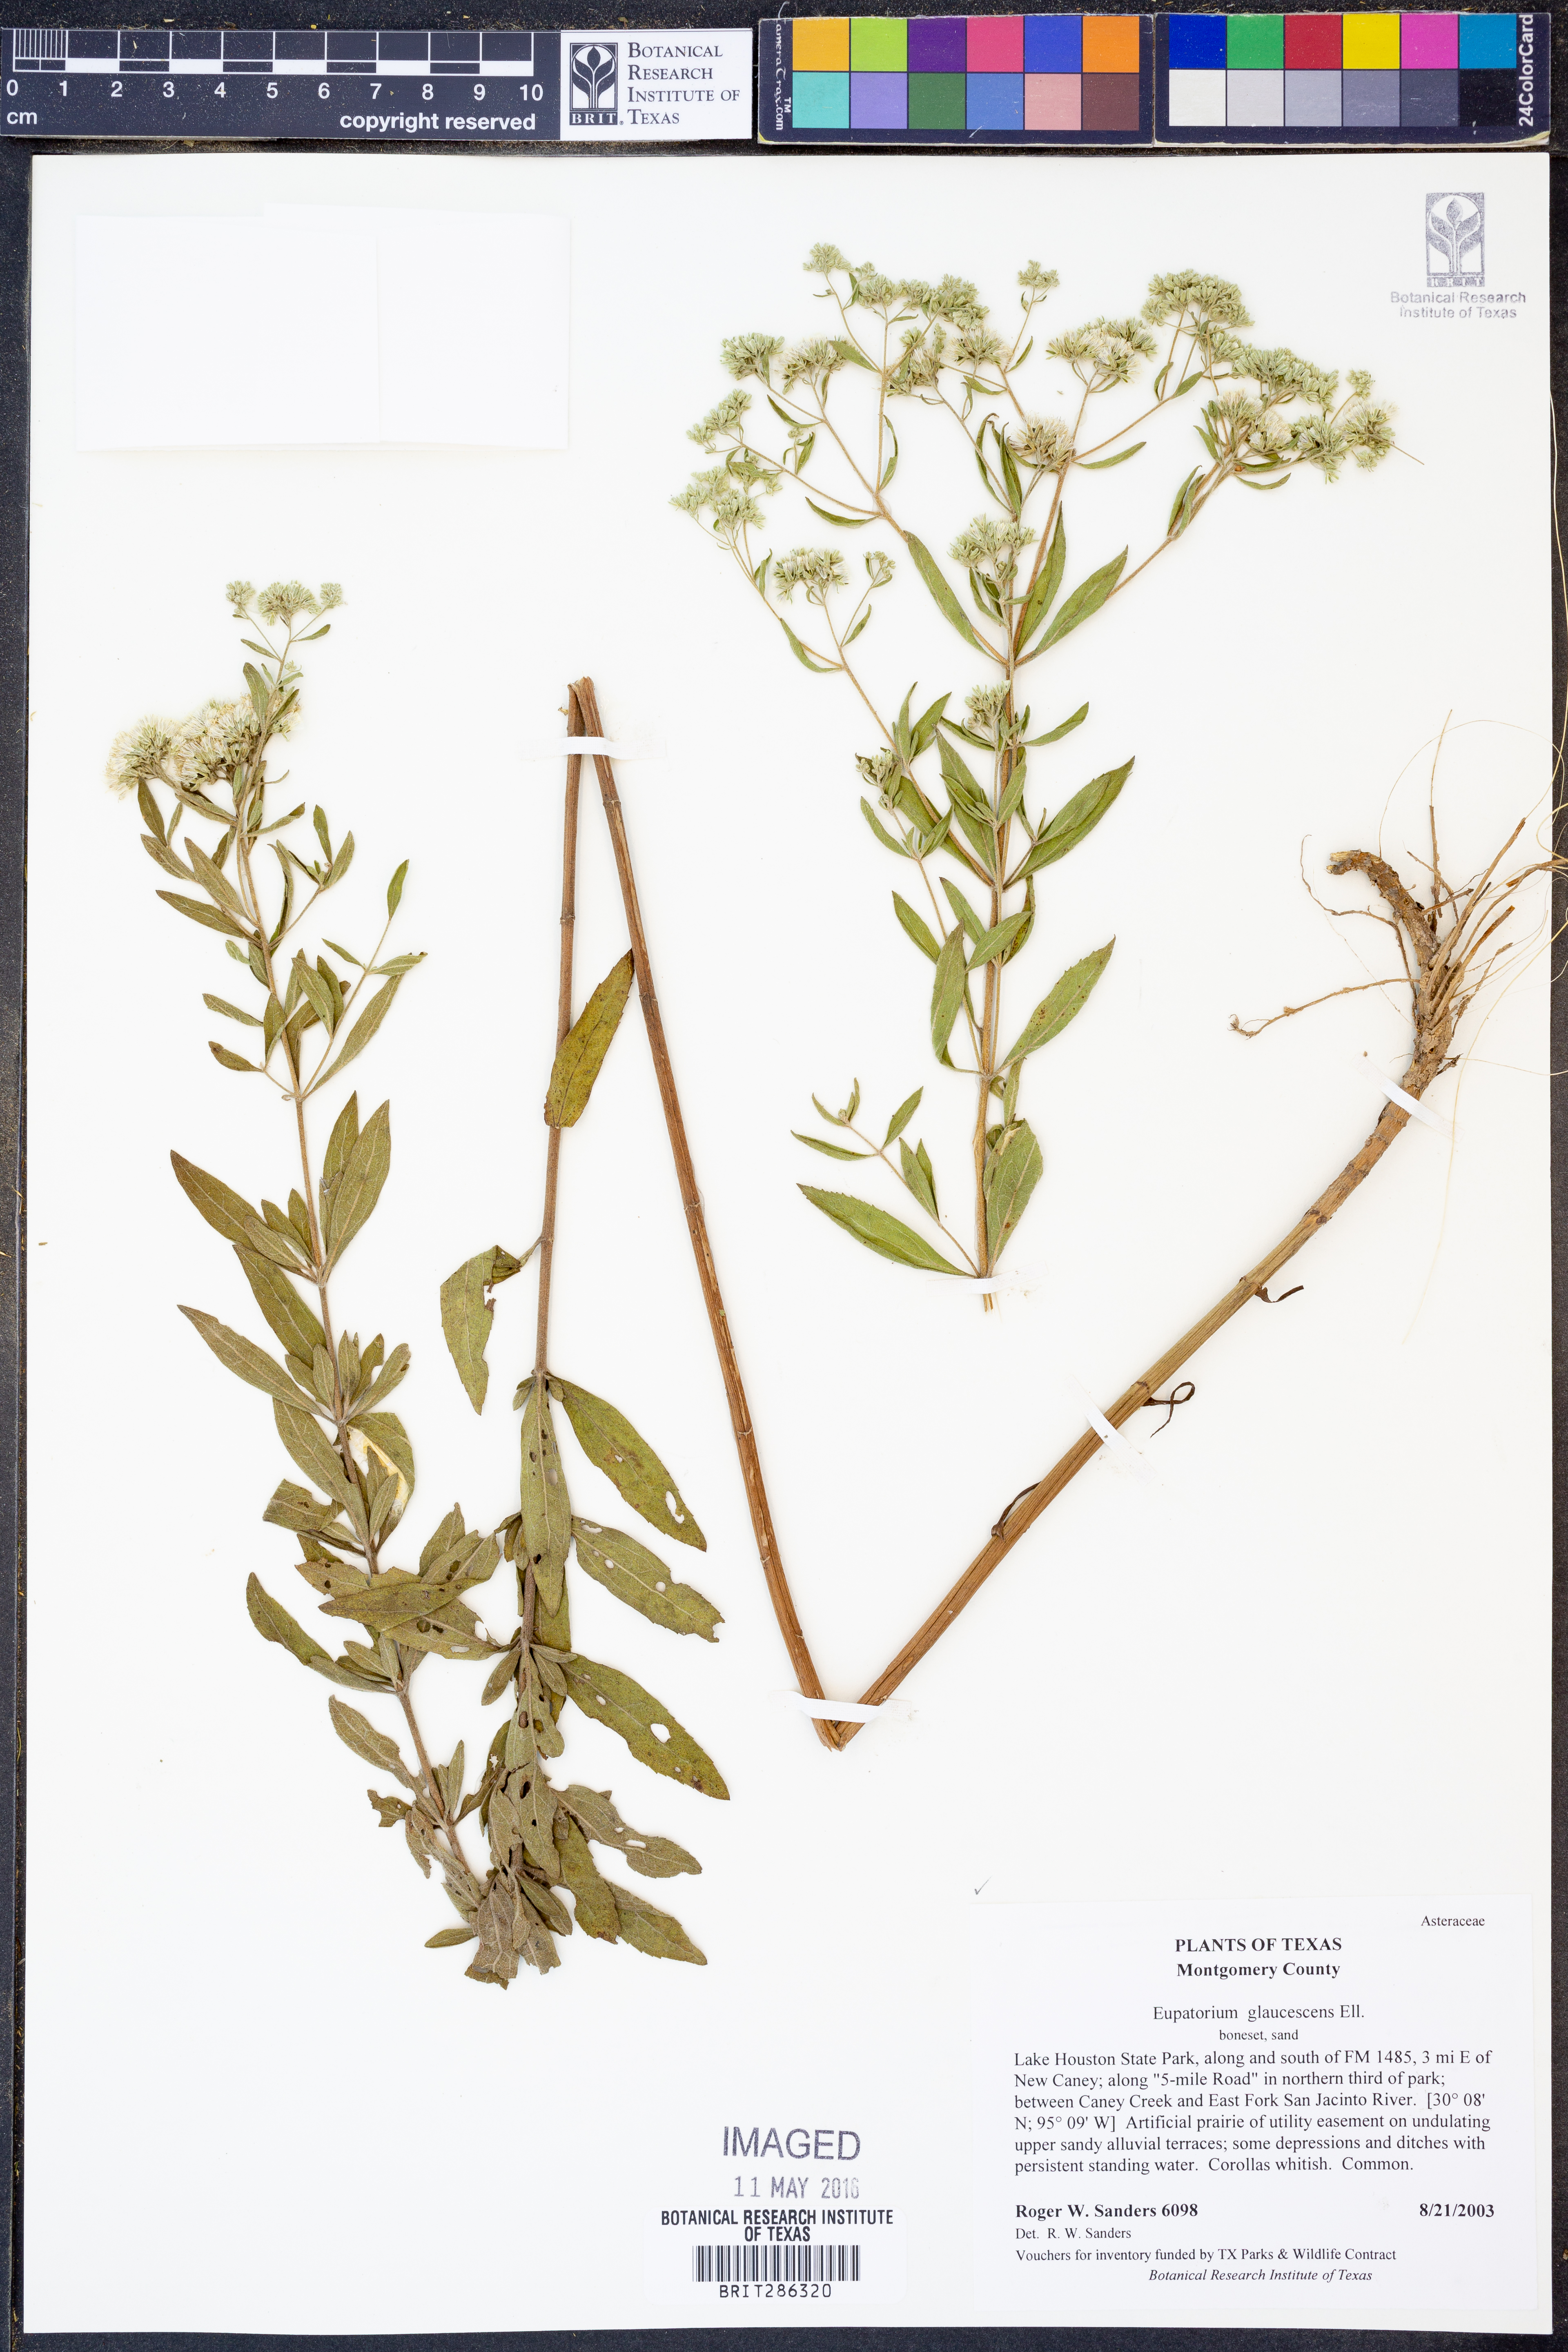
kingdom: Plantae
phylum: Tracheophyta
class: Magnoliopsida
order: Asterales
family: Asteraceae
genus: Eupatorium
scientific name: Eupatorium linearifolium
